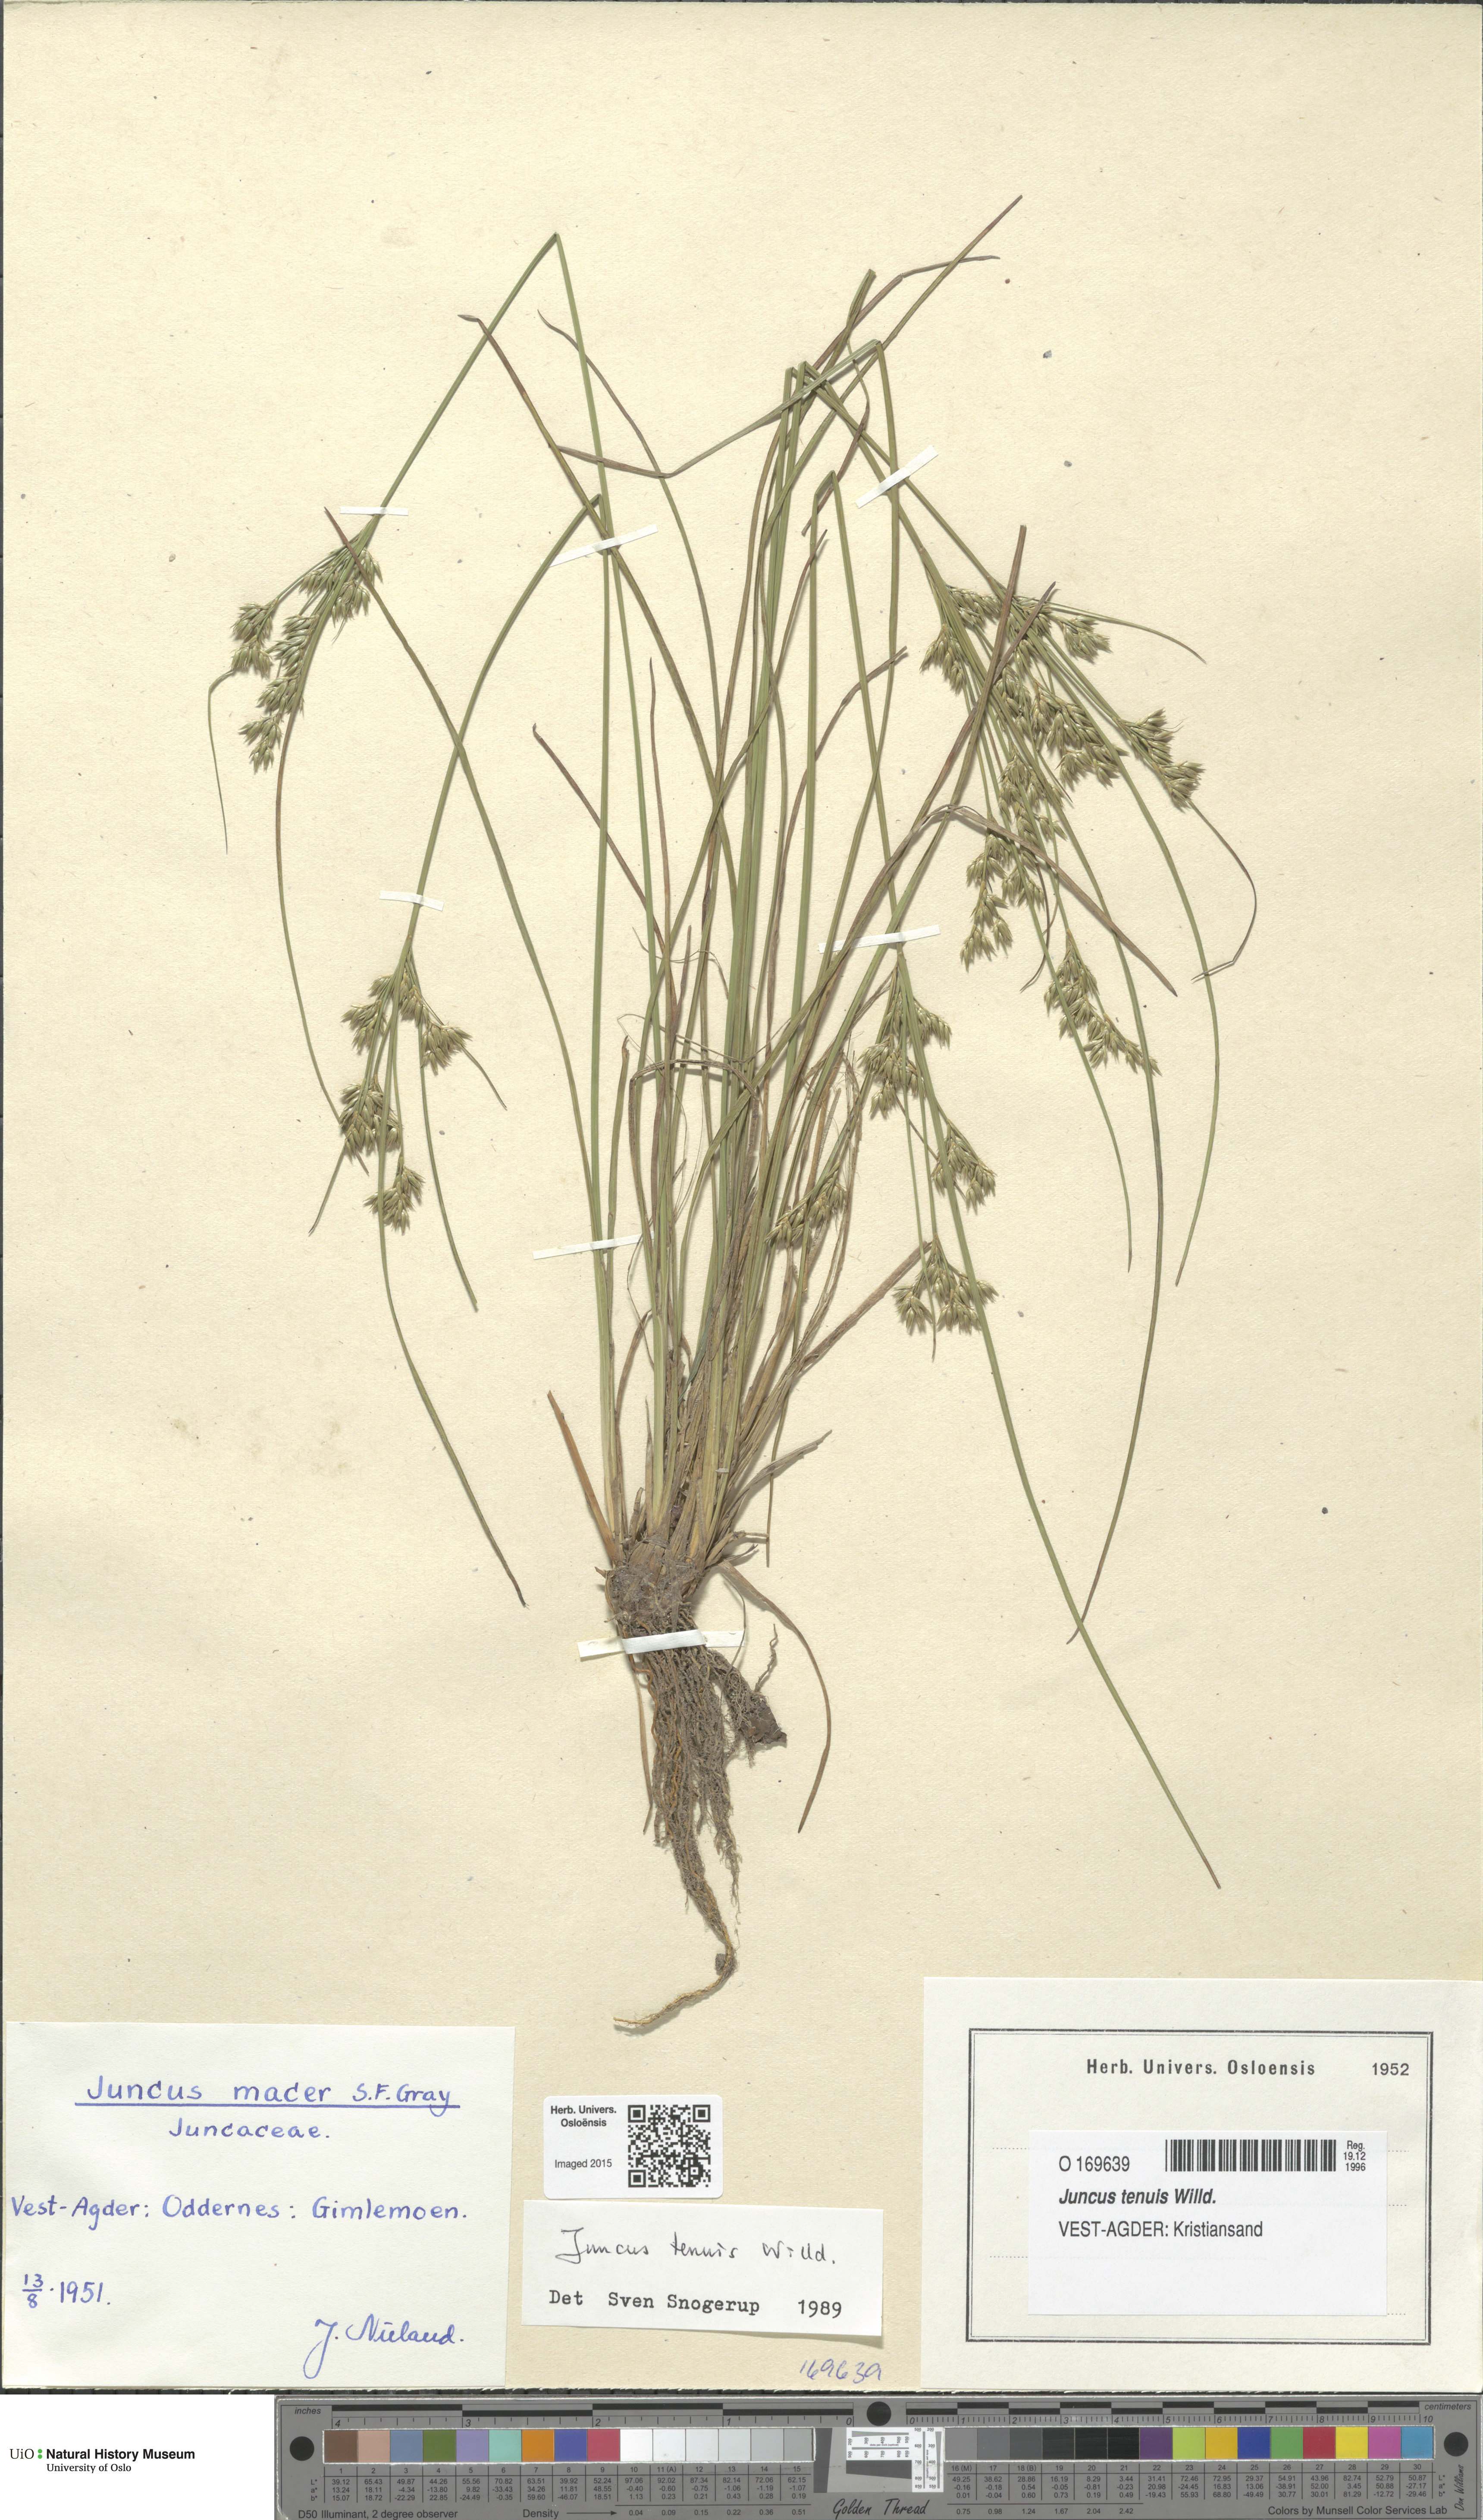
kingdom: Plantae
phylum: Tracheophyta
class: Liliopsida
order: Poales
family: Juncaceae
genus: Juncus
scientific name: Juncus tenuis
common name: Slender rush
